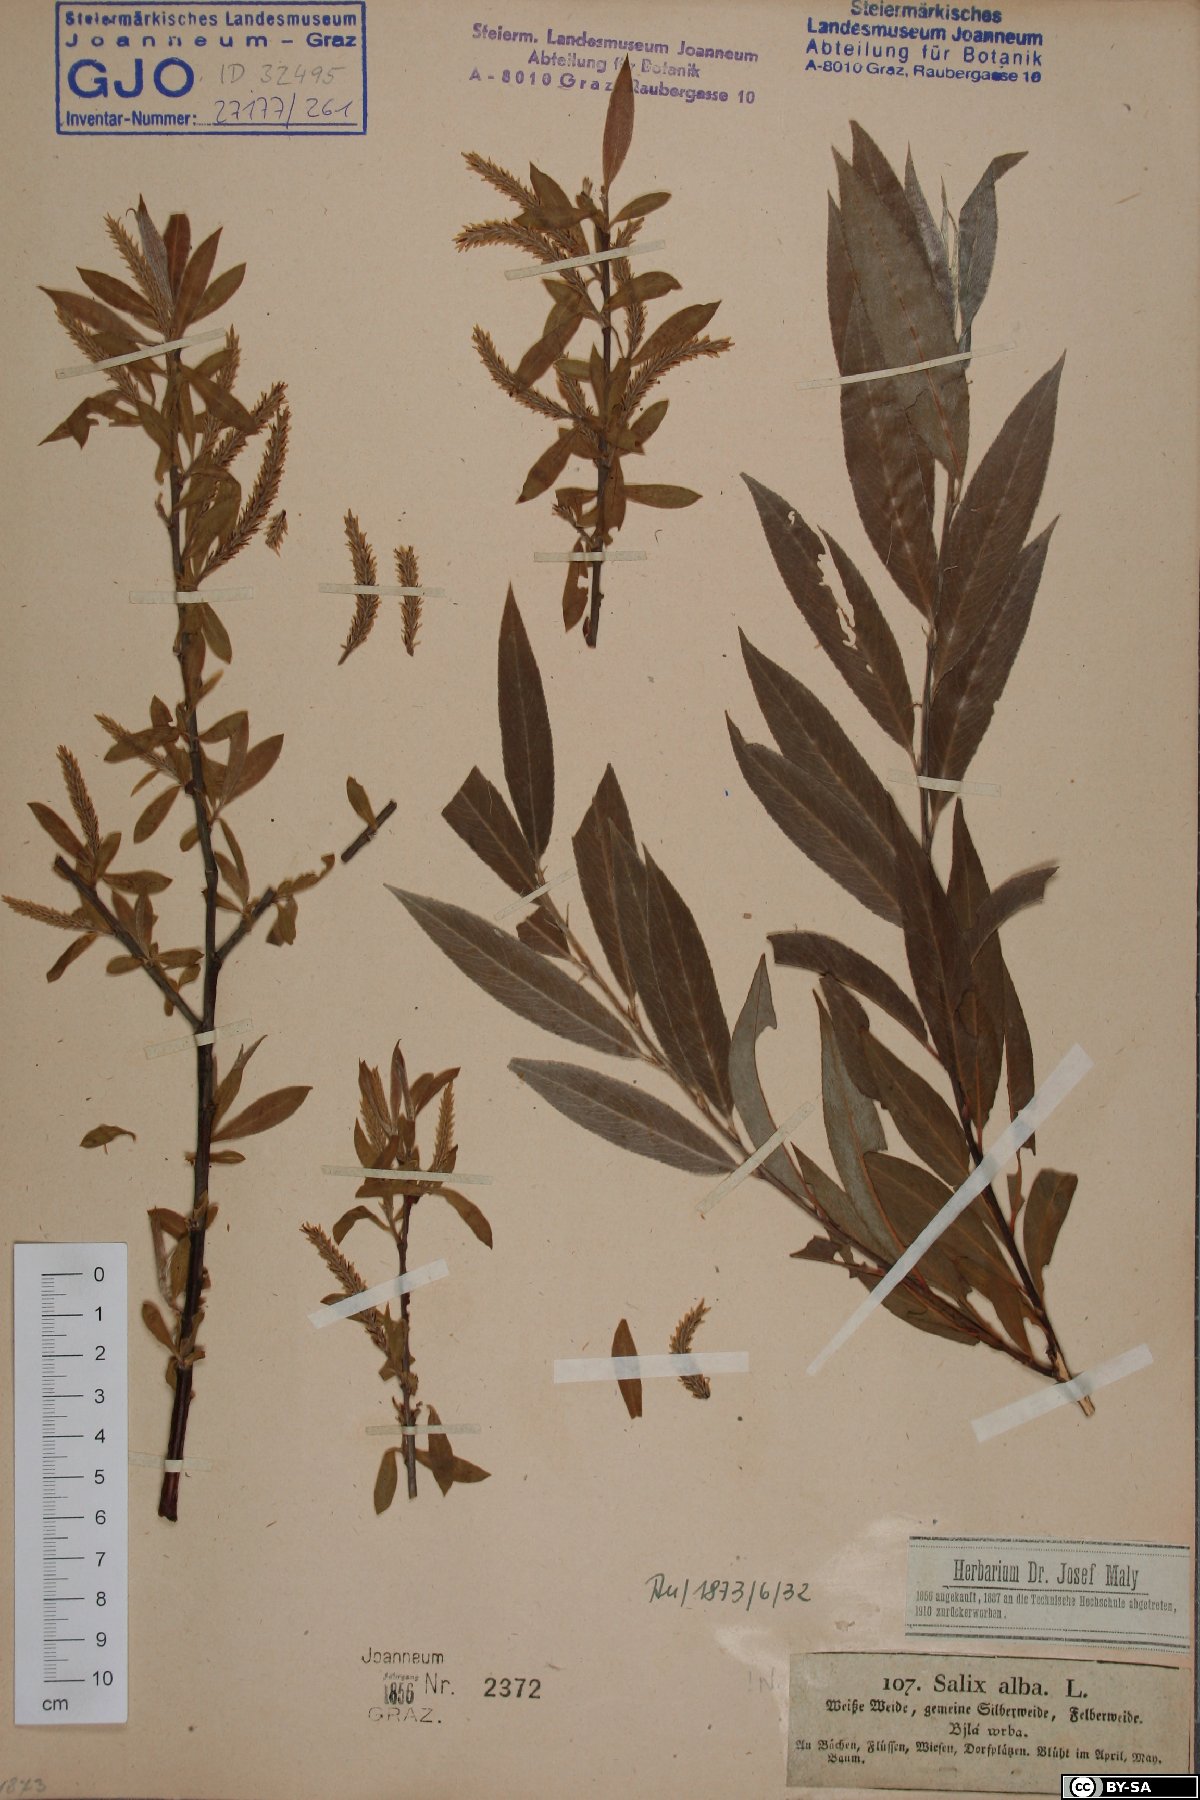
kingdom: Plantae
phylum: Tracheophyta
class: Magnoliopsida
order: Malpighiales
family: Salicaceae
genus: Salix
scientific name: Salix alba
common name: White willow
